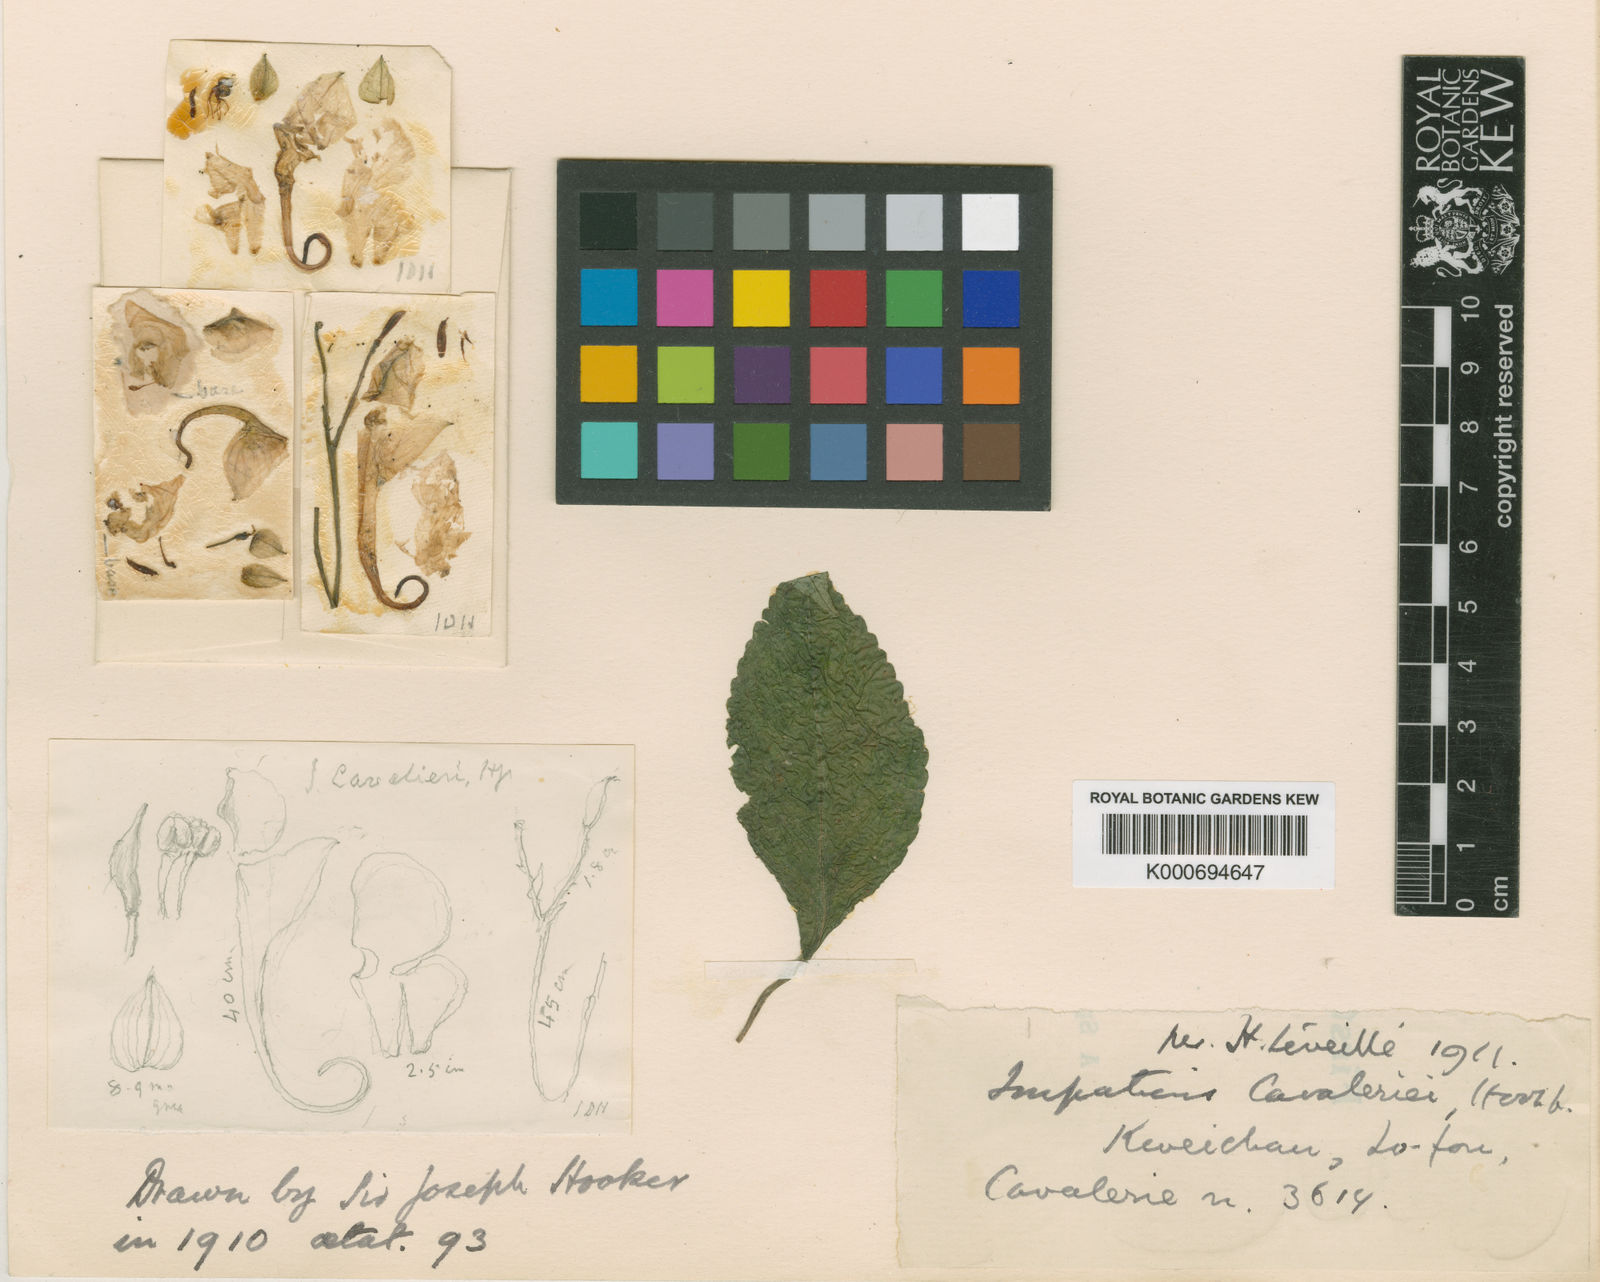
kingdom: Plantae
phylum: Tracheophyta
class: Magnoliopsida
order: Ericales
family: Balsaminaceae
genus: Impatiens
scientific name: Impatiens
